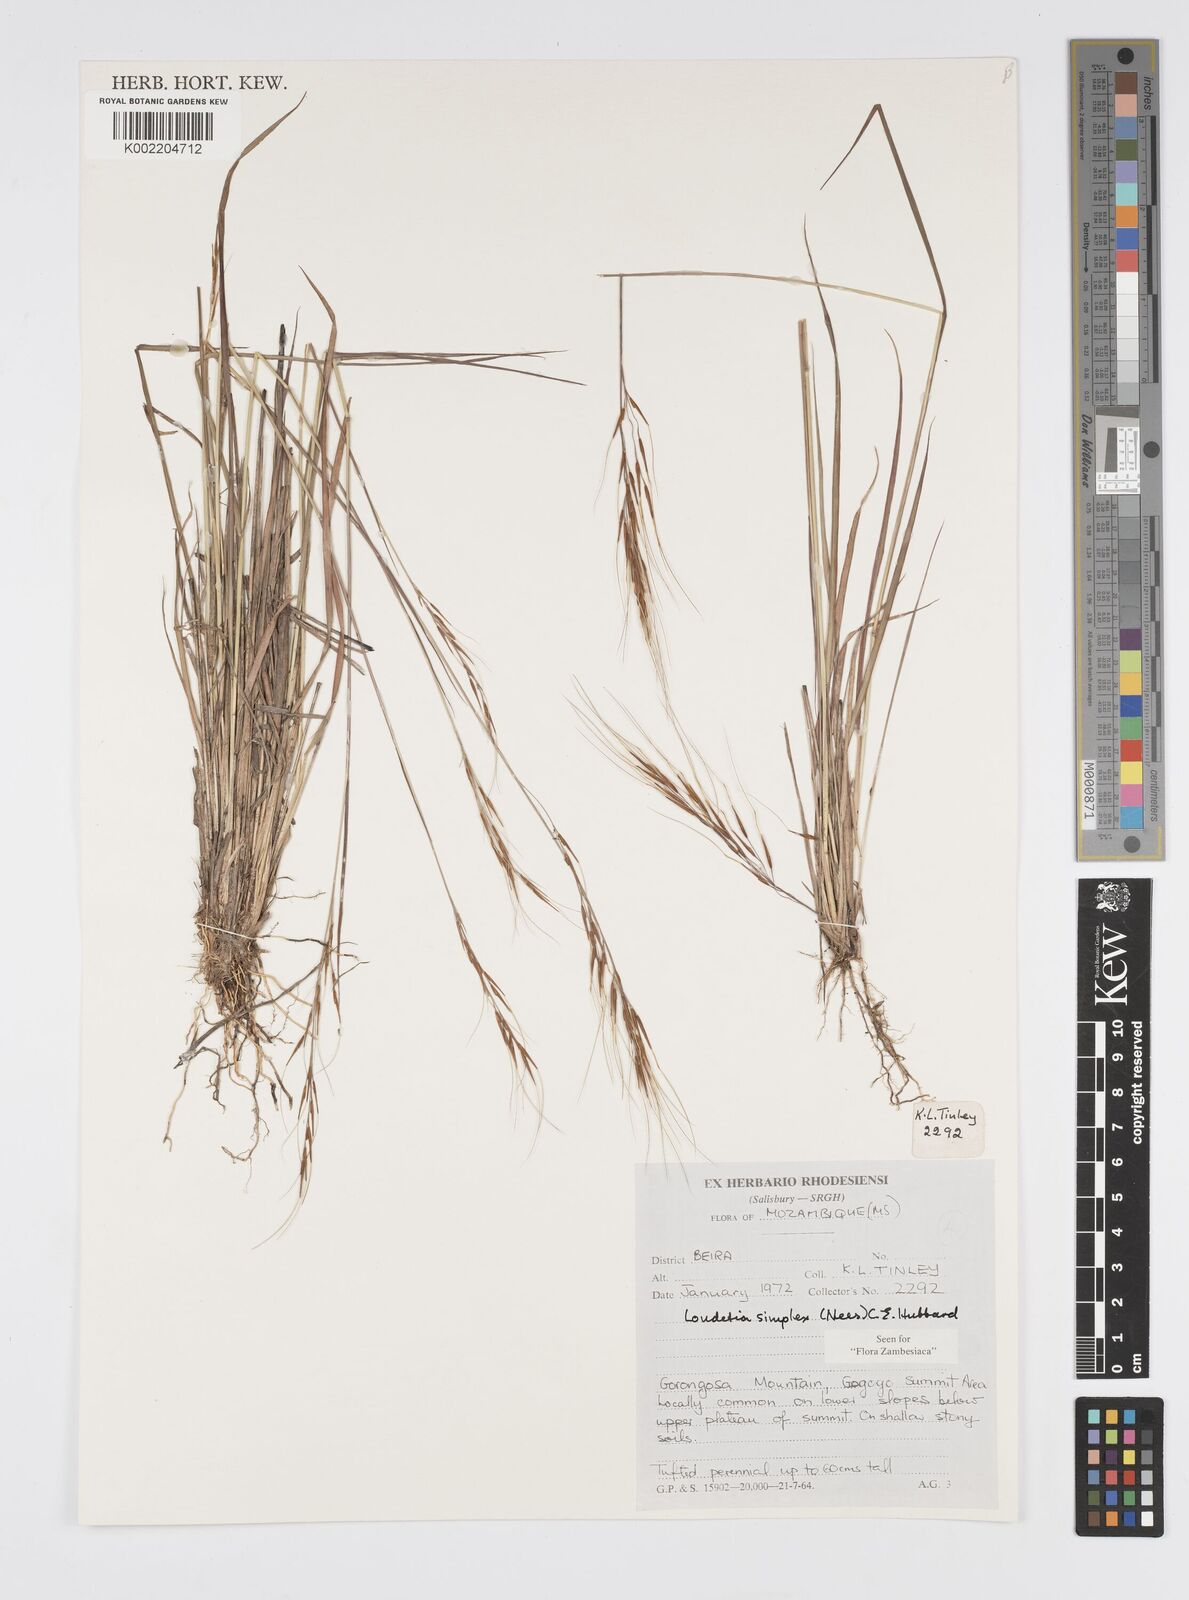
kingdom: Plantae
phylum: Tracheophyta
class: Liliopsida
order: Poales
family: Poaceae
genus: Loudetia
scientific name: Loudetia simplex
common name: Common russet grass
